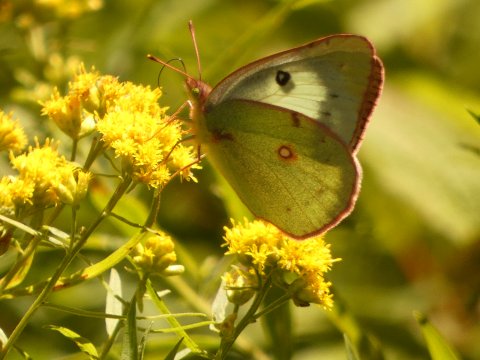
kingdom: Animalia
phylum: Arthropoda
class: Insecta
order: Lepidoptera
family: Pieridae
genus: Colias
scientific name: Colias philodice
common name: Clouded Sulphur
